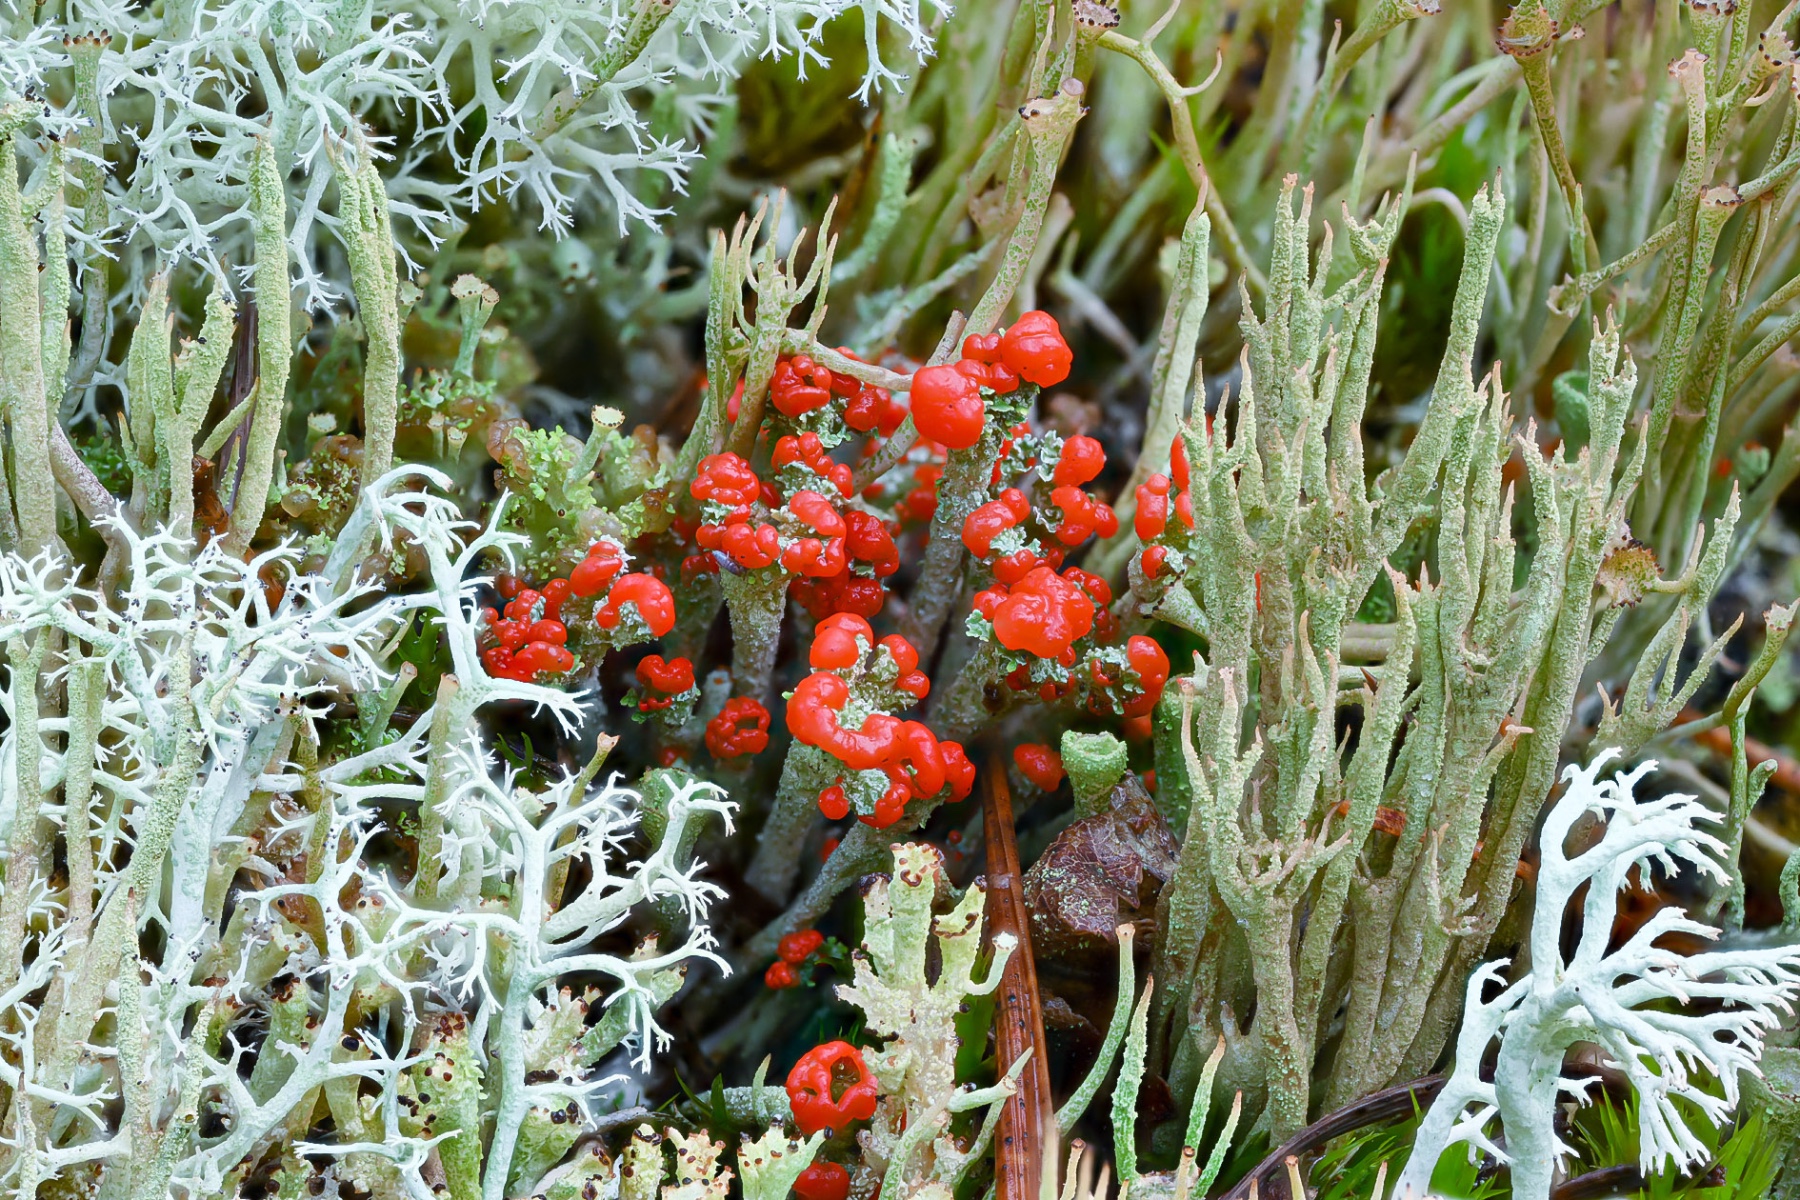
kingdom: Fungi
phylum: Ascomycota
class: Lecanoromycetes
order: Lecanorales
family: Cladoniaceae
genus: Cladonia
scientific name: Cladonia floerkeana
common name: lakrød bægerlav
